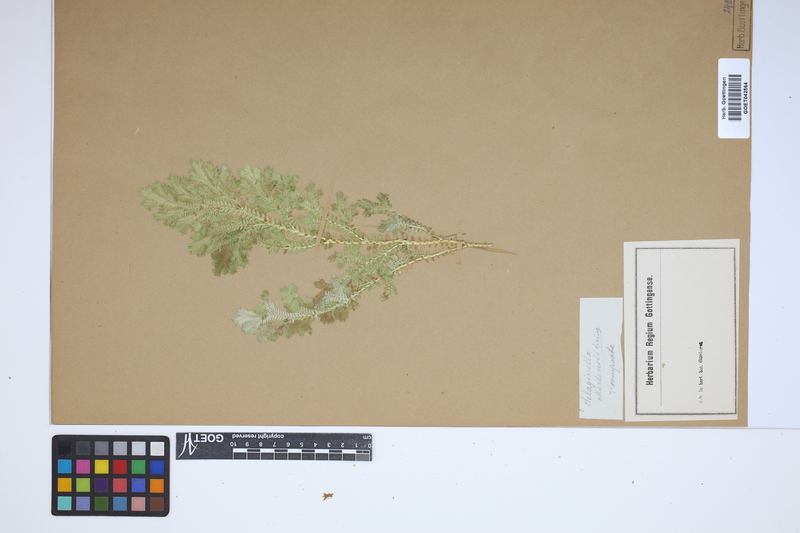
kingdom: Plantae
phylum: Tracheophyta
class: Lycopodiopsida
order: Selaginellales
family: Selaginellaceae
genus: Selaginella
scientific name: Selaginella martensii
